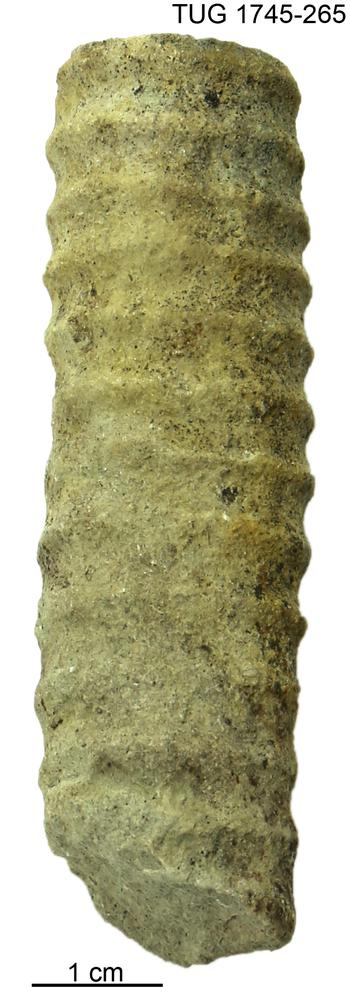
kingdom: Animalia
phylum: Mollusca
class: Cephalopoda
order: Orthocerida
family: Dawsonoceratidae
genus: Palaeodawsonocerina
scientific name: Palaeodawsonocerina Spyroceras senckenbergi
